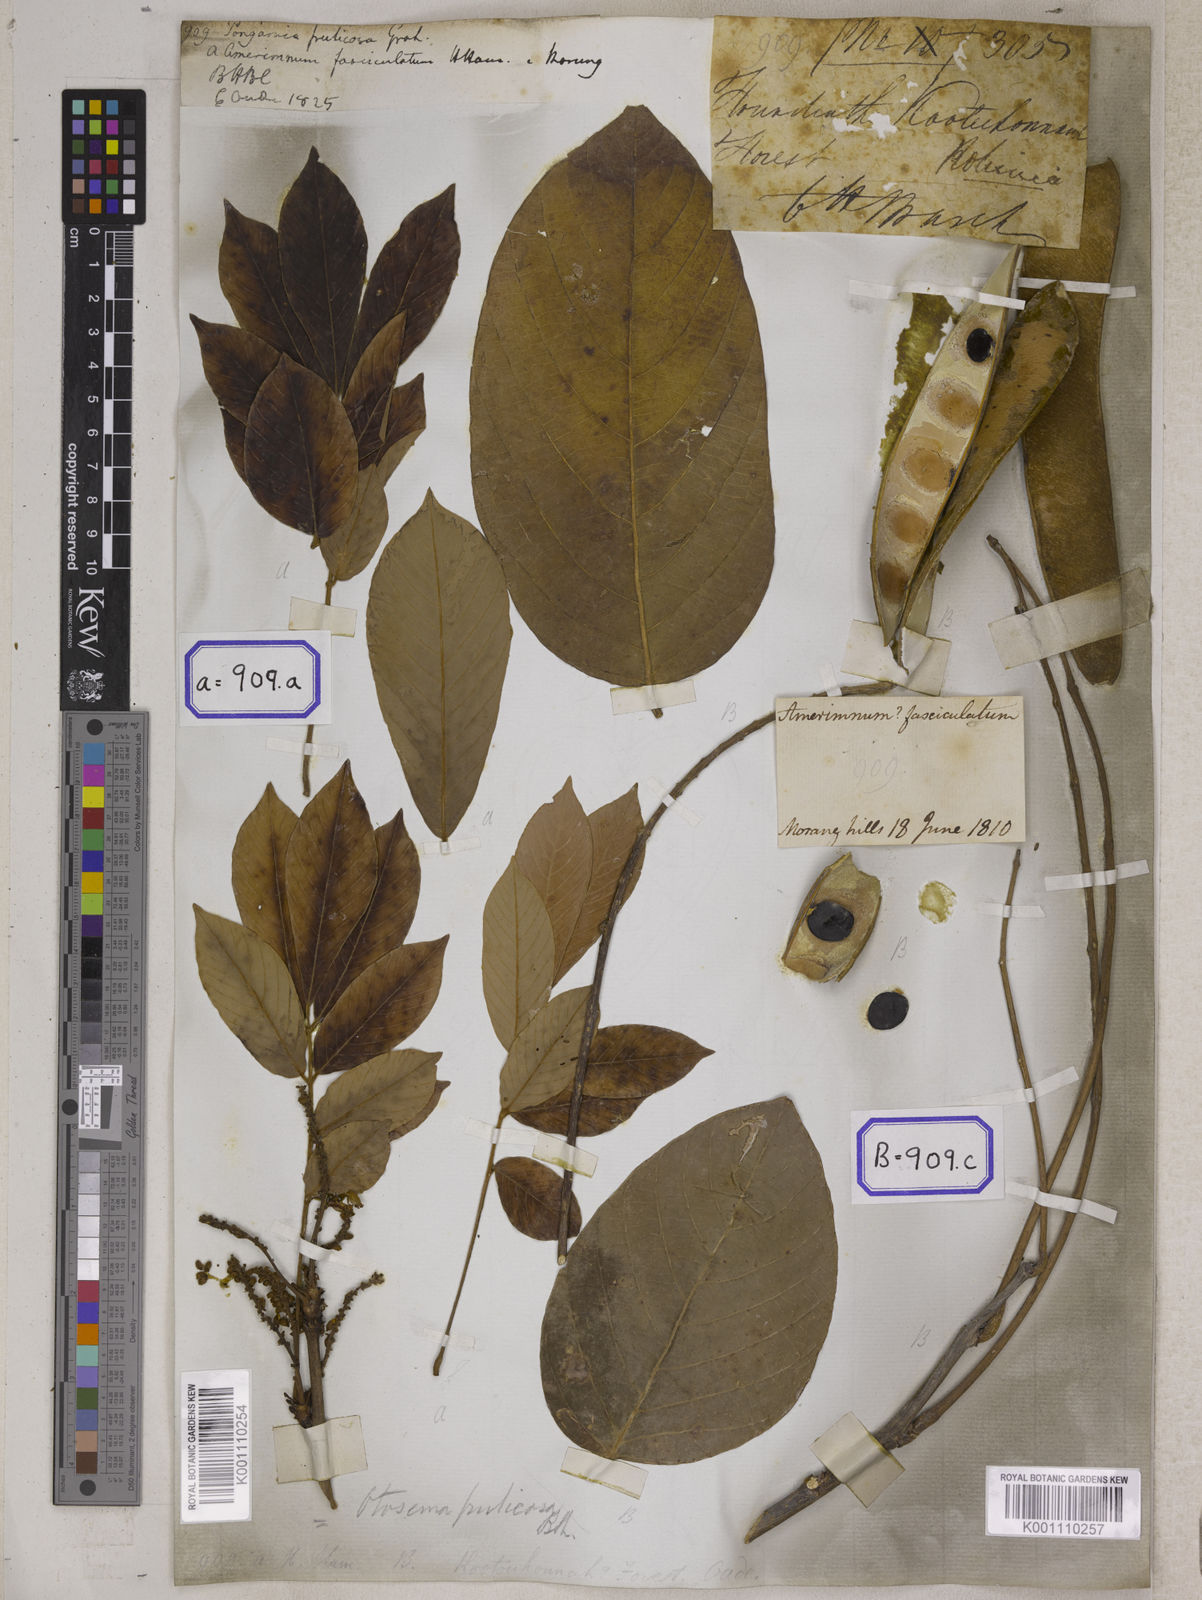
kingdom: Plantae
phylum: Tracheophyta
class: Magnoliopsida
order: Fabales
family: Fabaceae
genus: Millettia
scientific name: Millettia fruticosa
